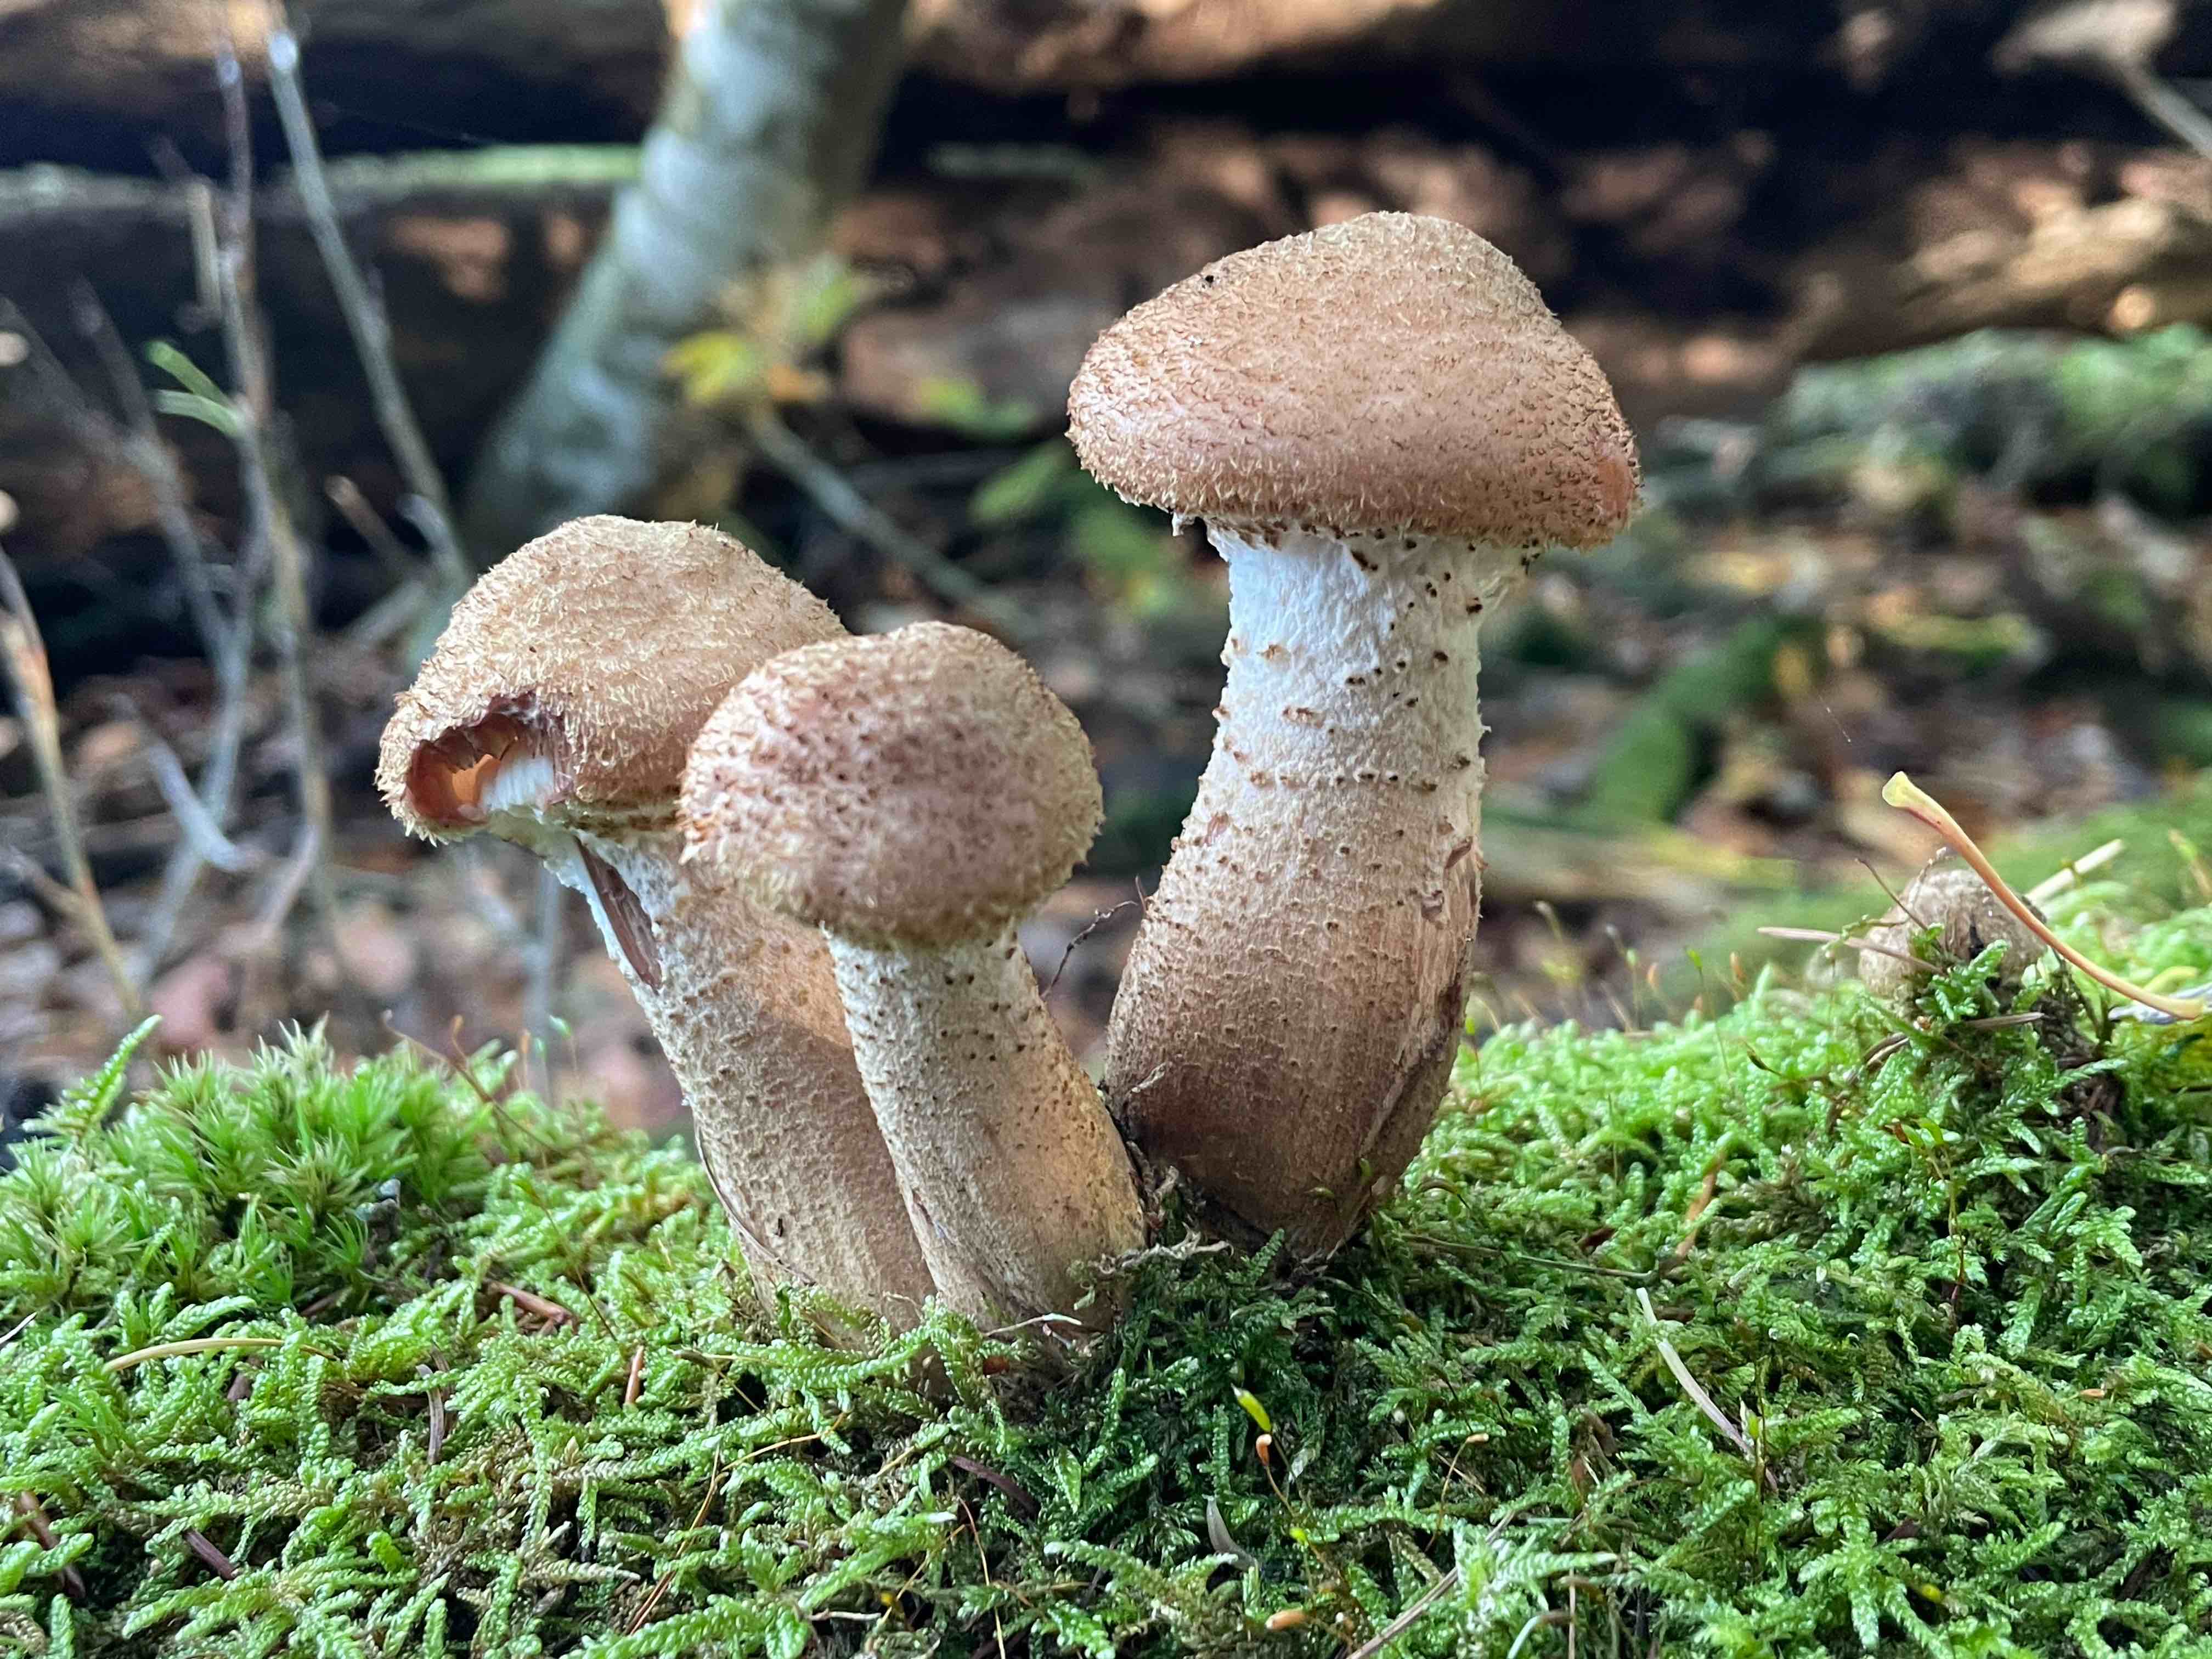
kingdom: Fungi
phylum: Basidiomycota
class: Agaricomycetes
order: Agaricales
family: Physalacriaceae
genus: Armillaria
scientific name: Armillaria lutea
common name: køllestokket honningsvamp
